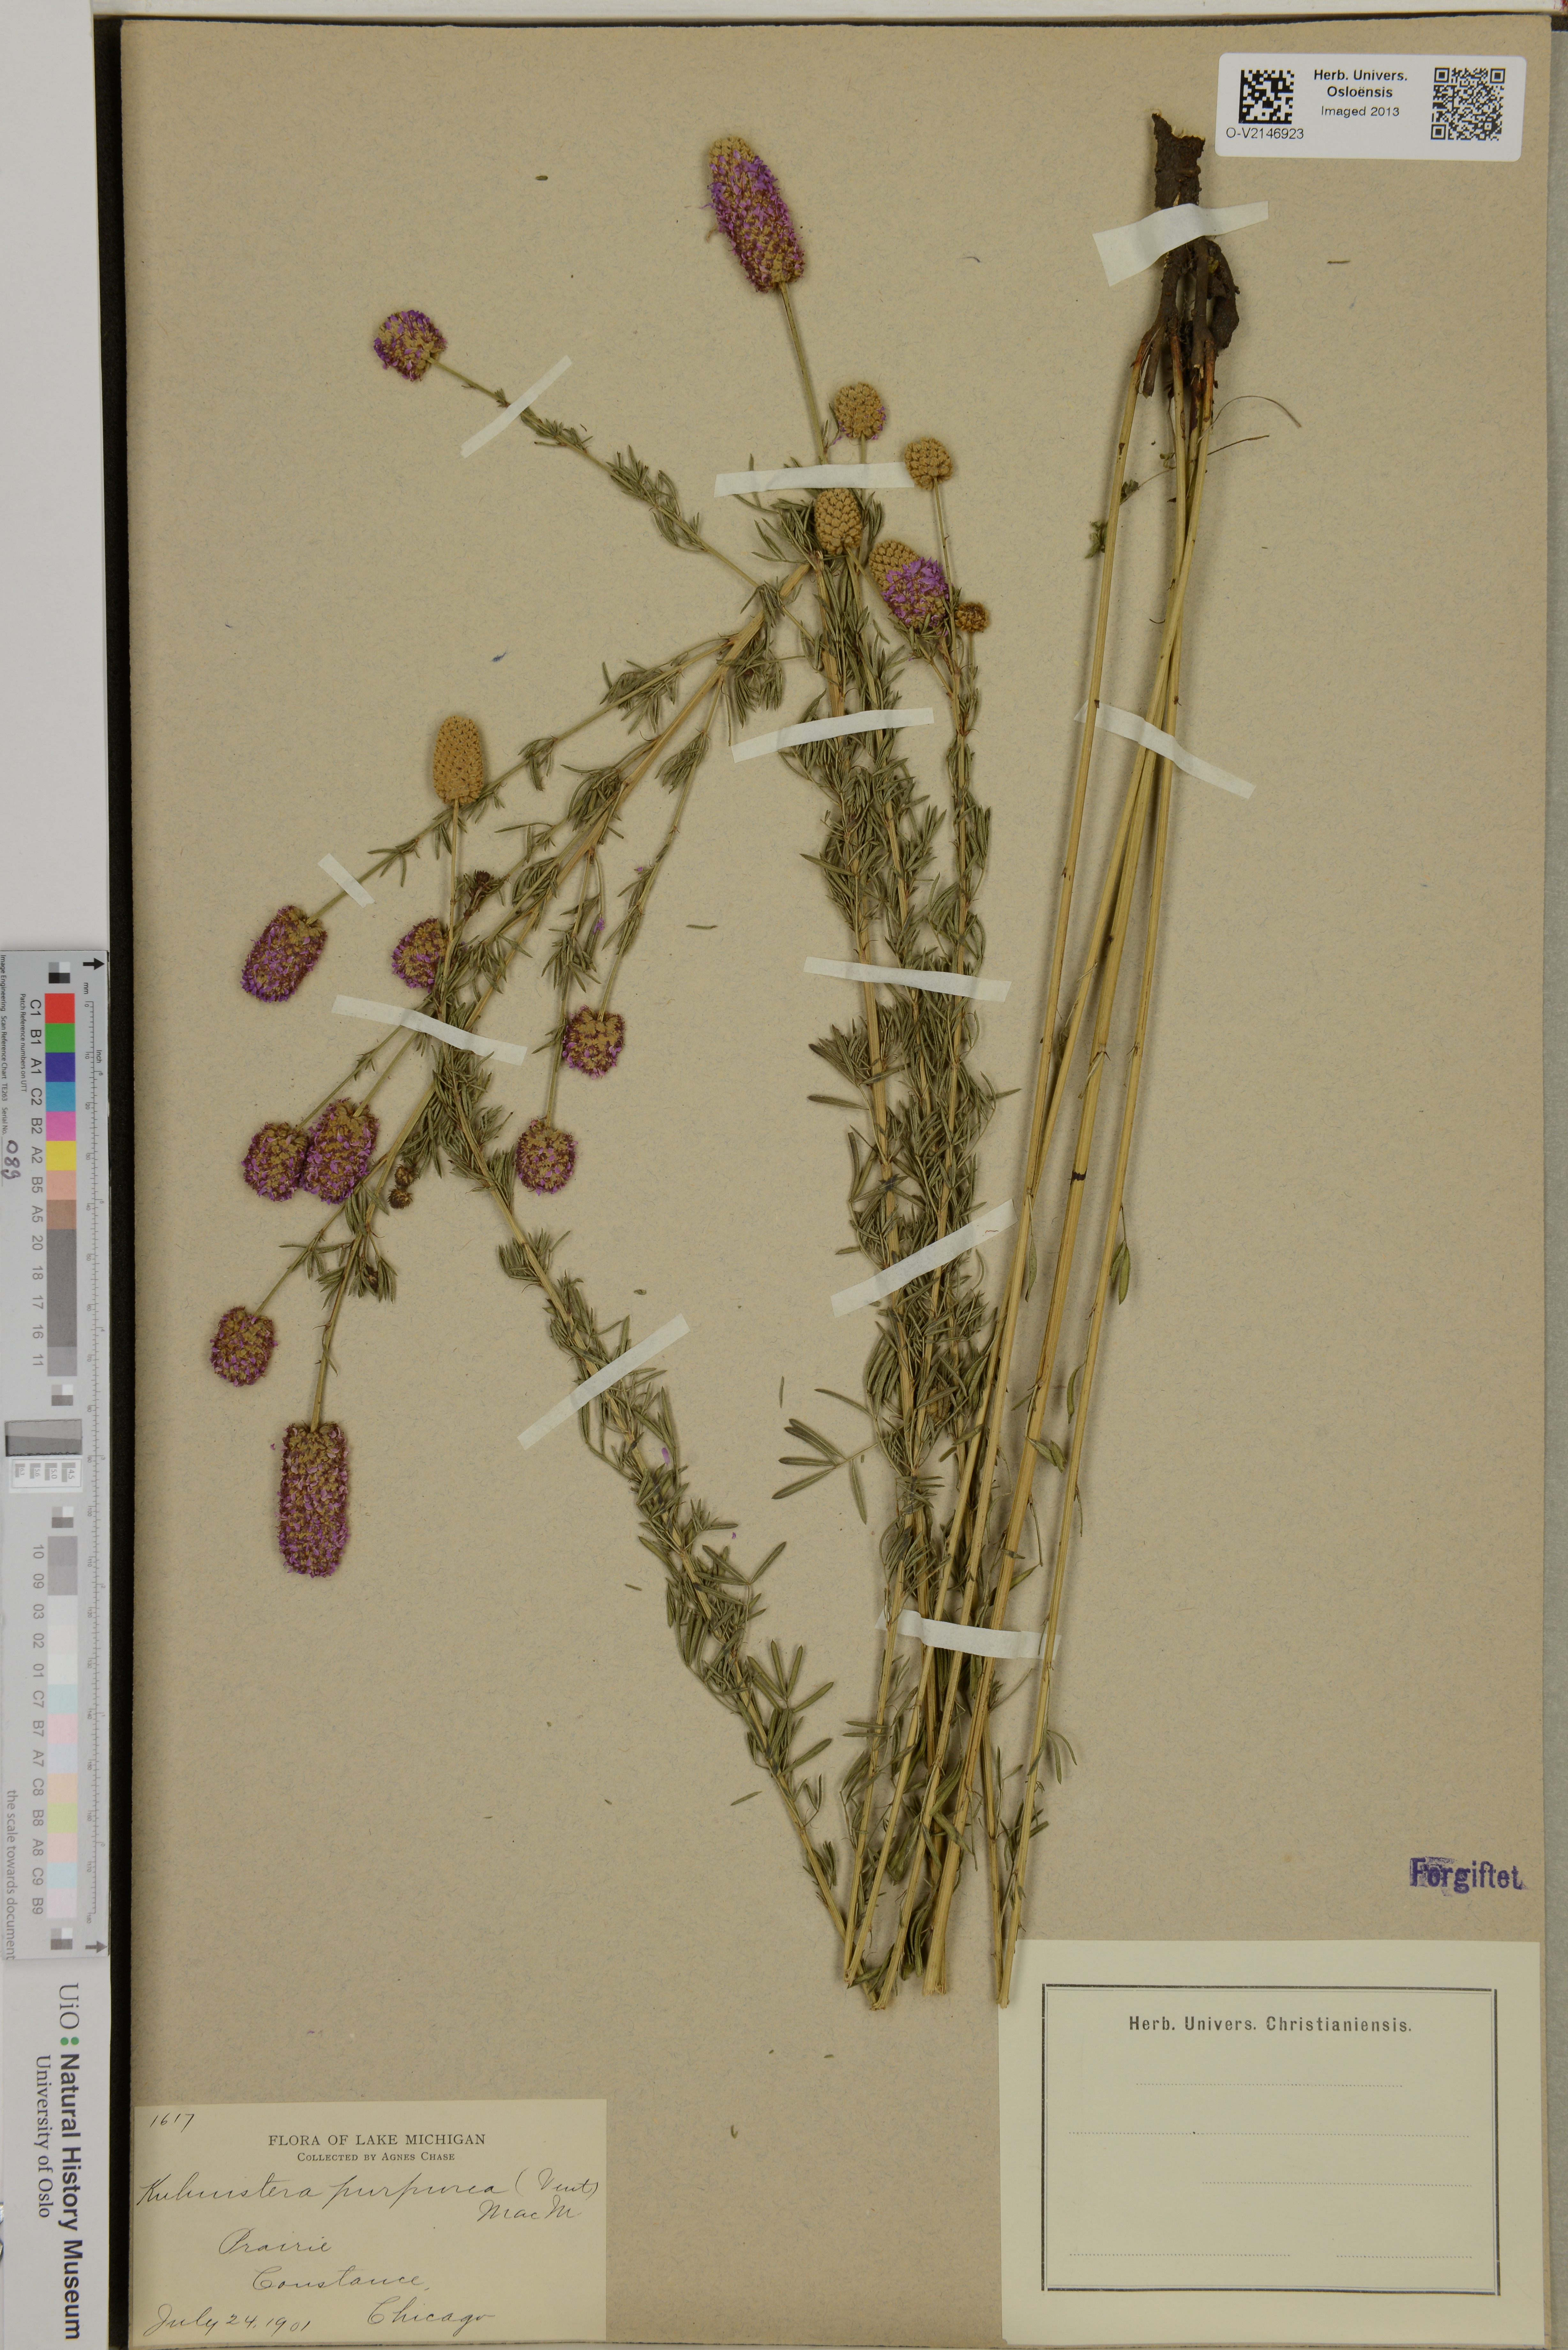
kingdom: Plantae
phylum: Tracheophyta
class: Magnoliopsida
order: Fabales
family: Fabaceae
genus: Dalea
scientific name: Dalea purpurea
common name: Purple prairie-clover
